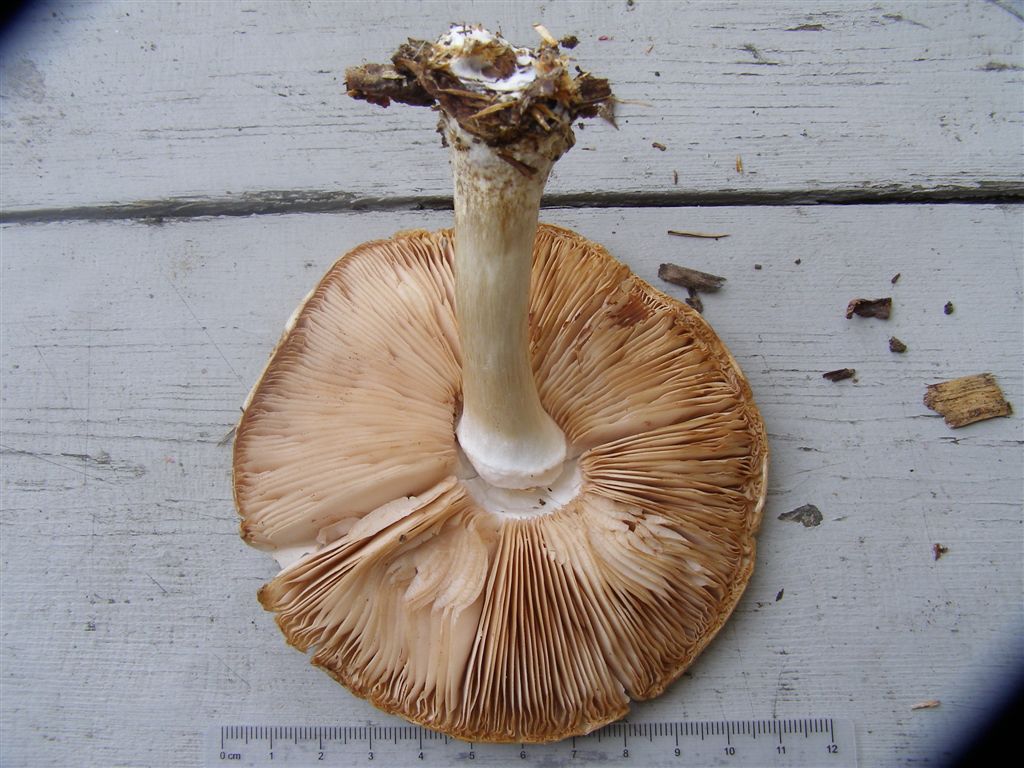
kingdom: Fungi
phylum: Basidiomycota
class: Agaricomycetes
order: Agaricales
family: Pluteaceae
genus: Pluteus
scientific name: Pluteus petasatus
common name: savsmulds-skærmhat
